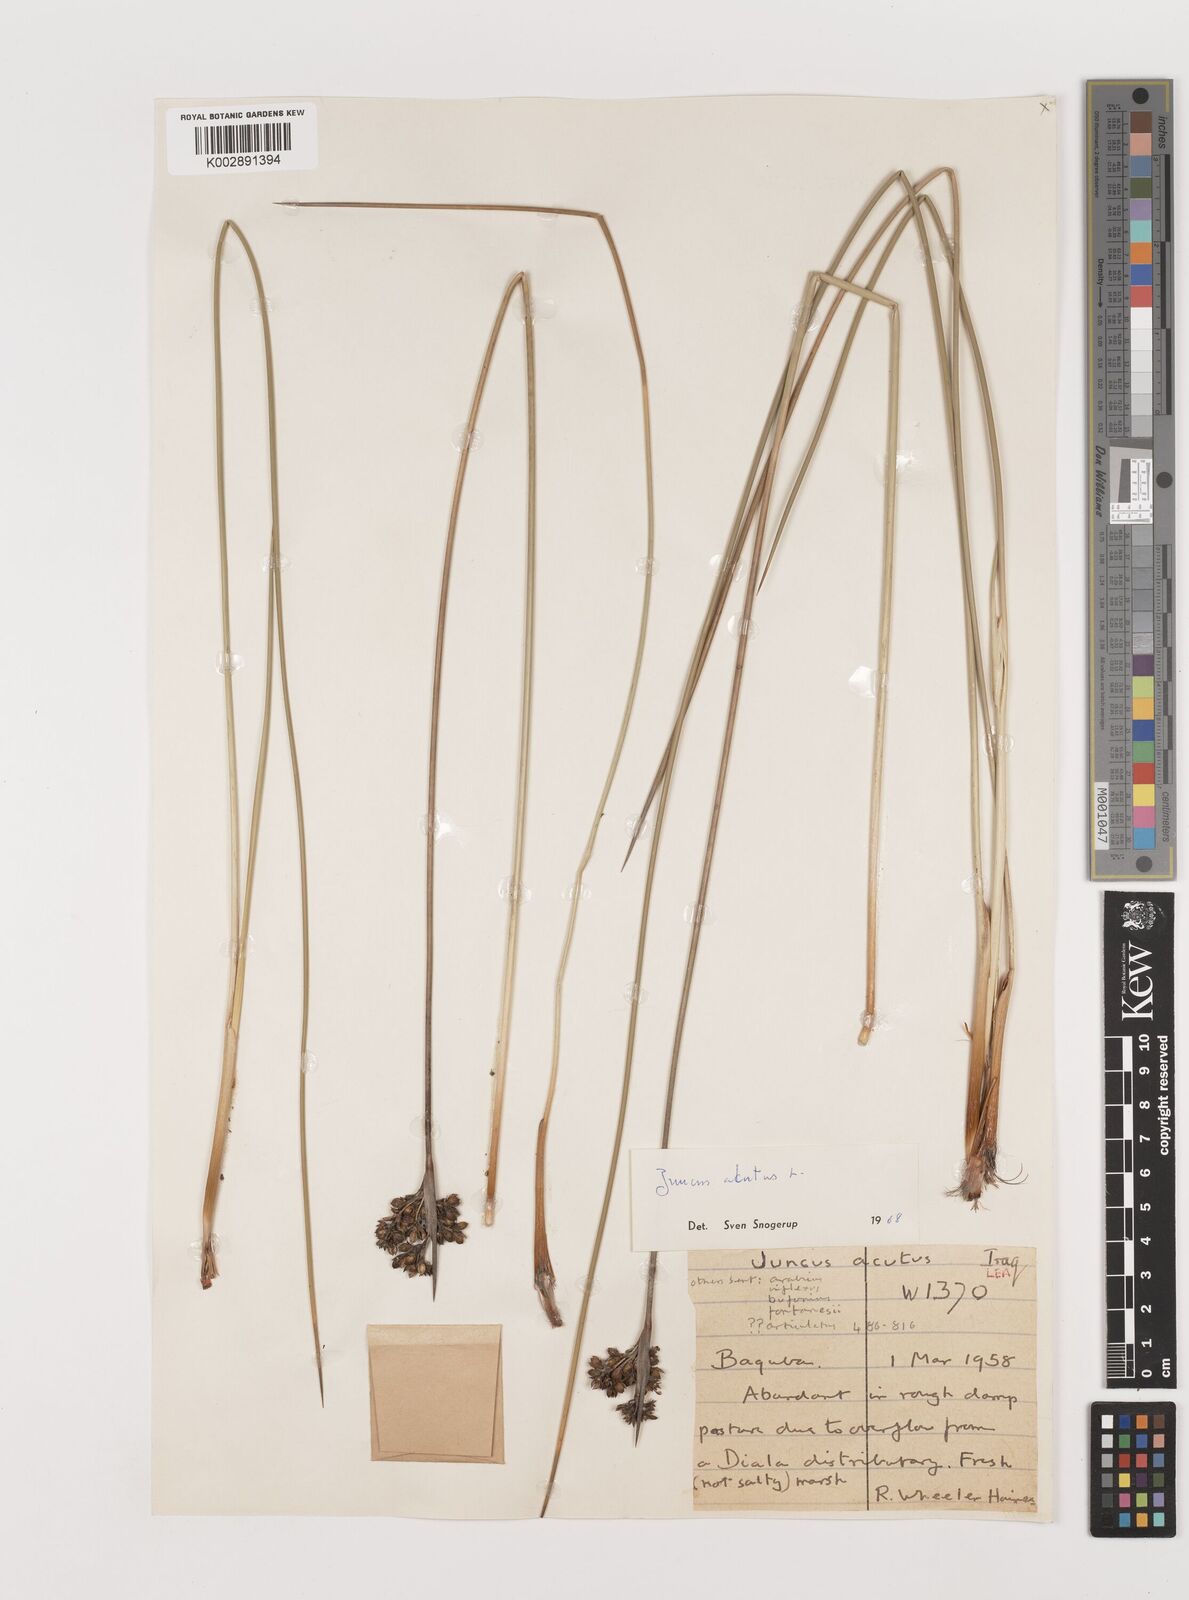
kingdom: Plantae
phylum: Tracheophyta
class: Liliopsida
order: Poales
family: Juncaceae
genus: Juncus
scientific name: Juncus acutus
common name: Sharp rush
